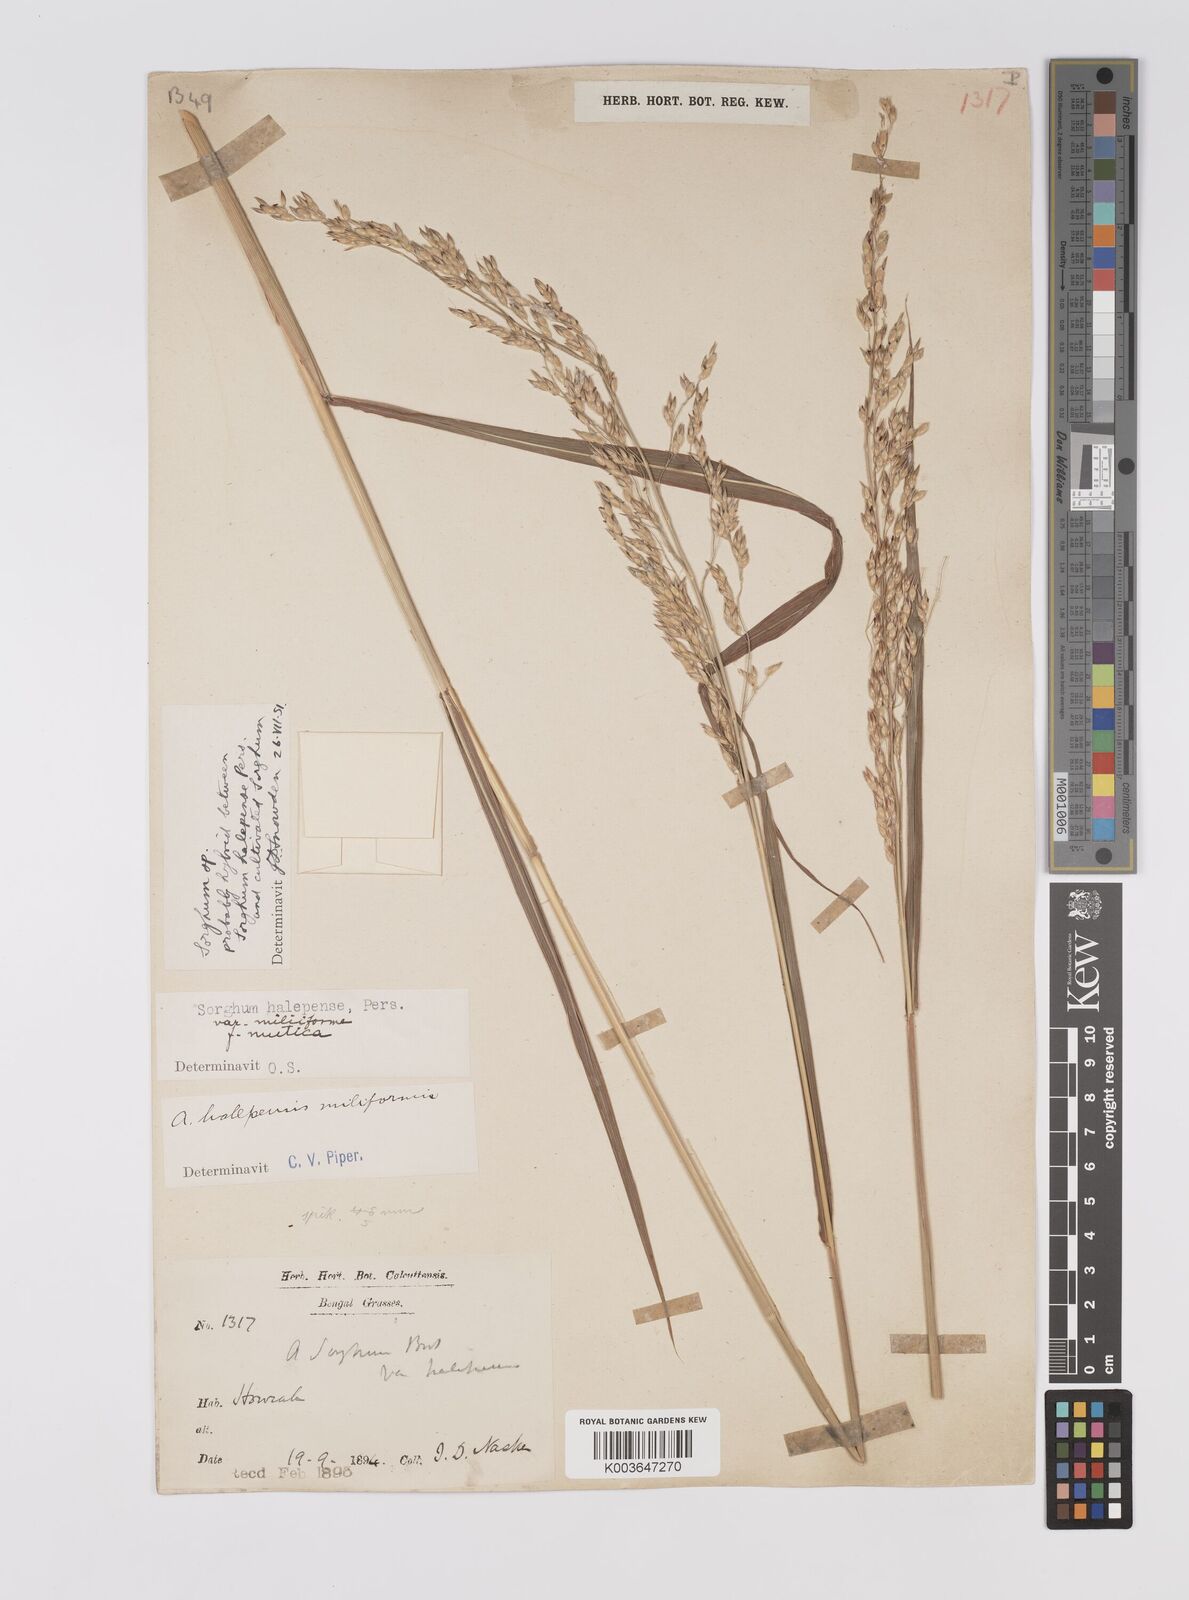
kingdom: Plantae
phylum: Tracheophyta
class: Liliopsida
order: Poales
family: Poaceae
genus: Sorghum
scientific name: Sorghum halepense
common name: Johnson-grass
